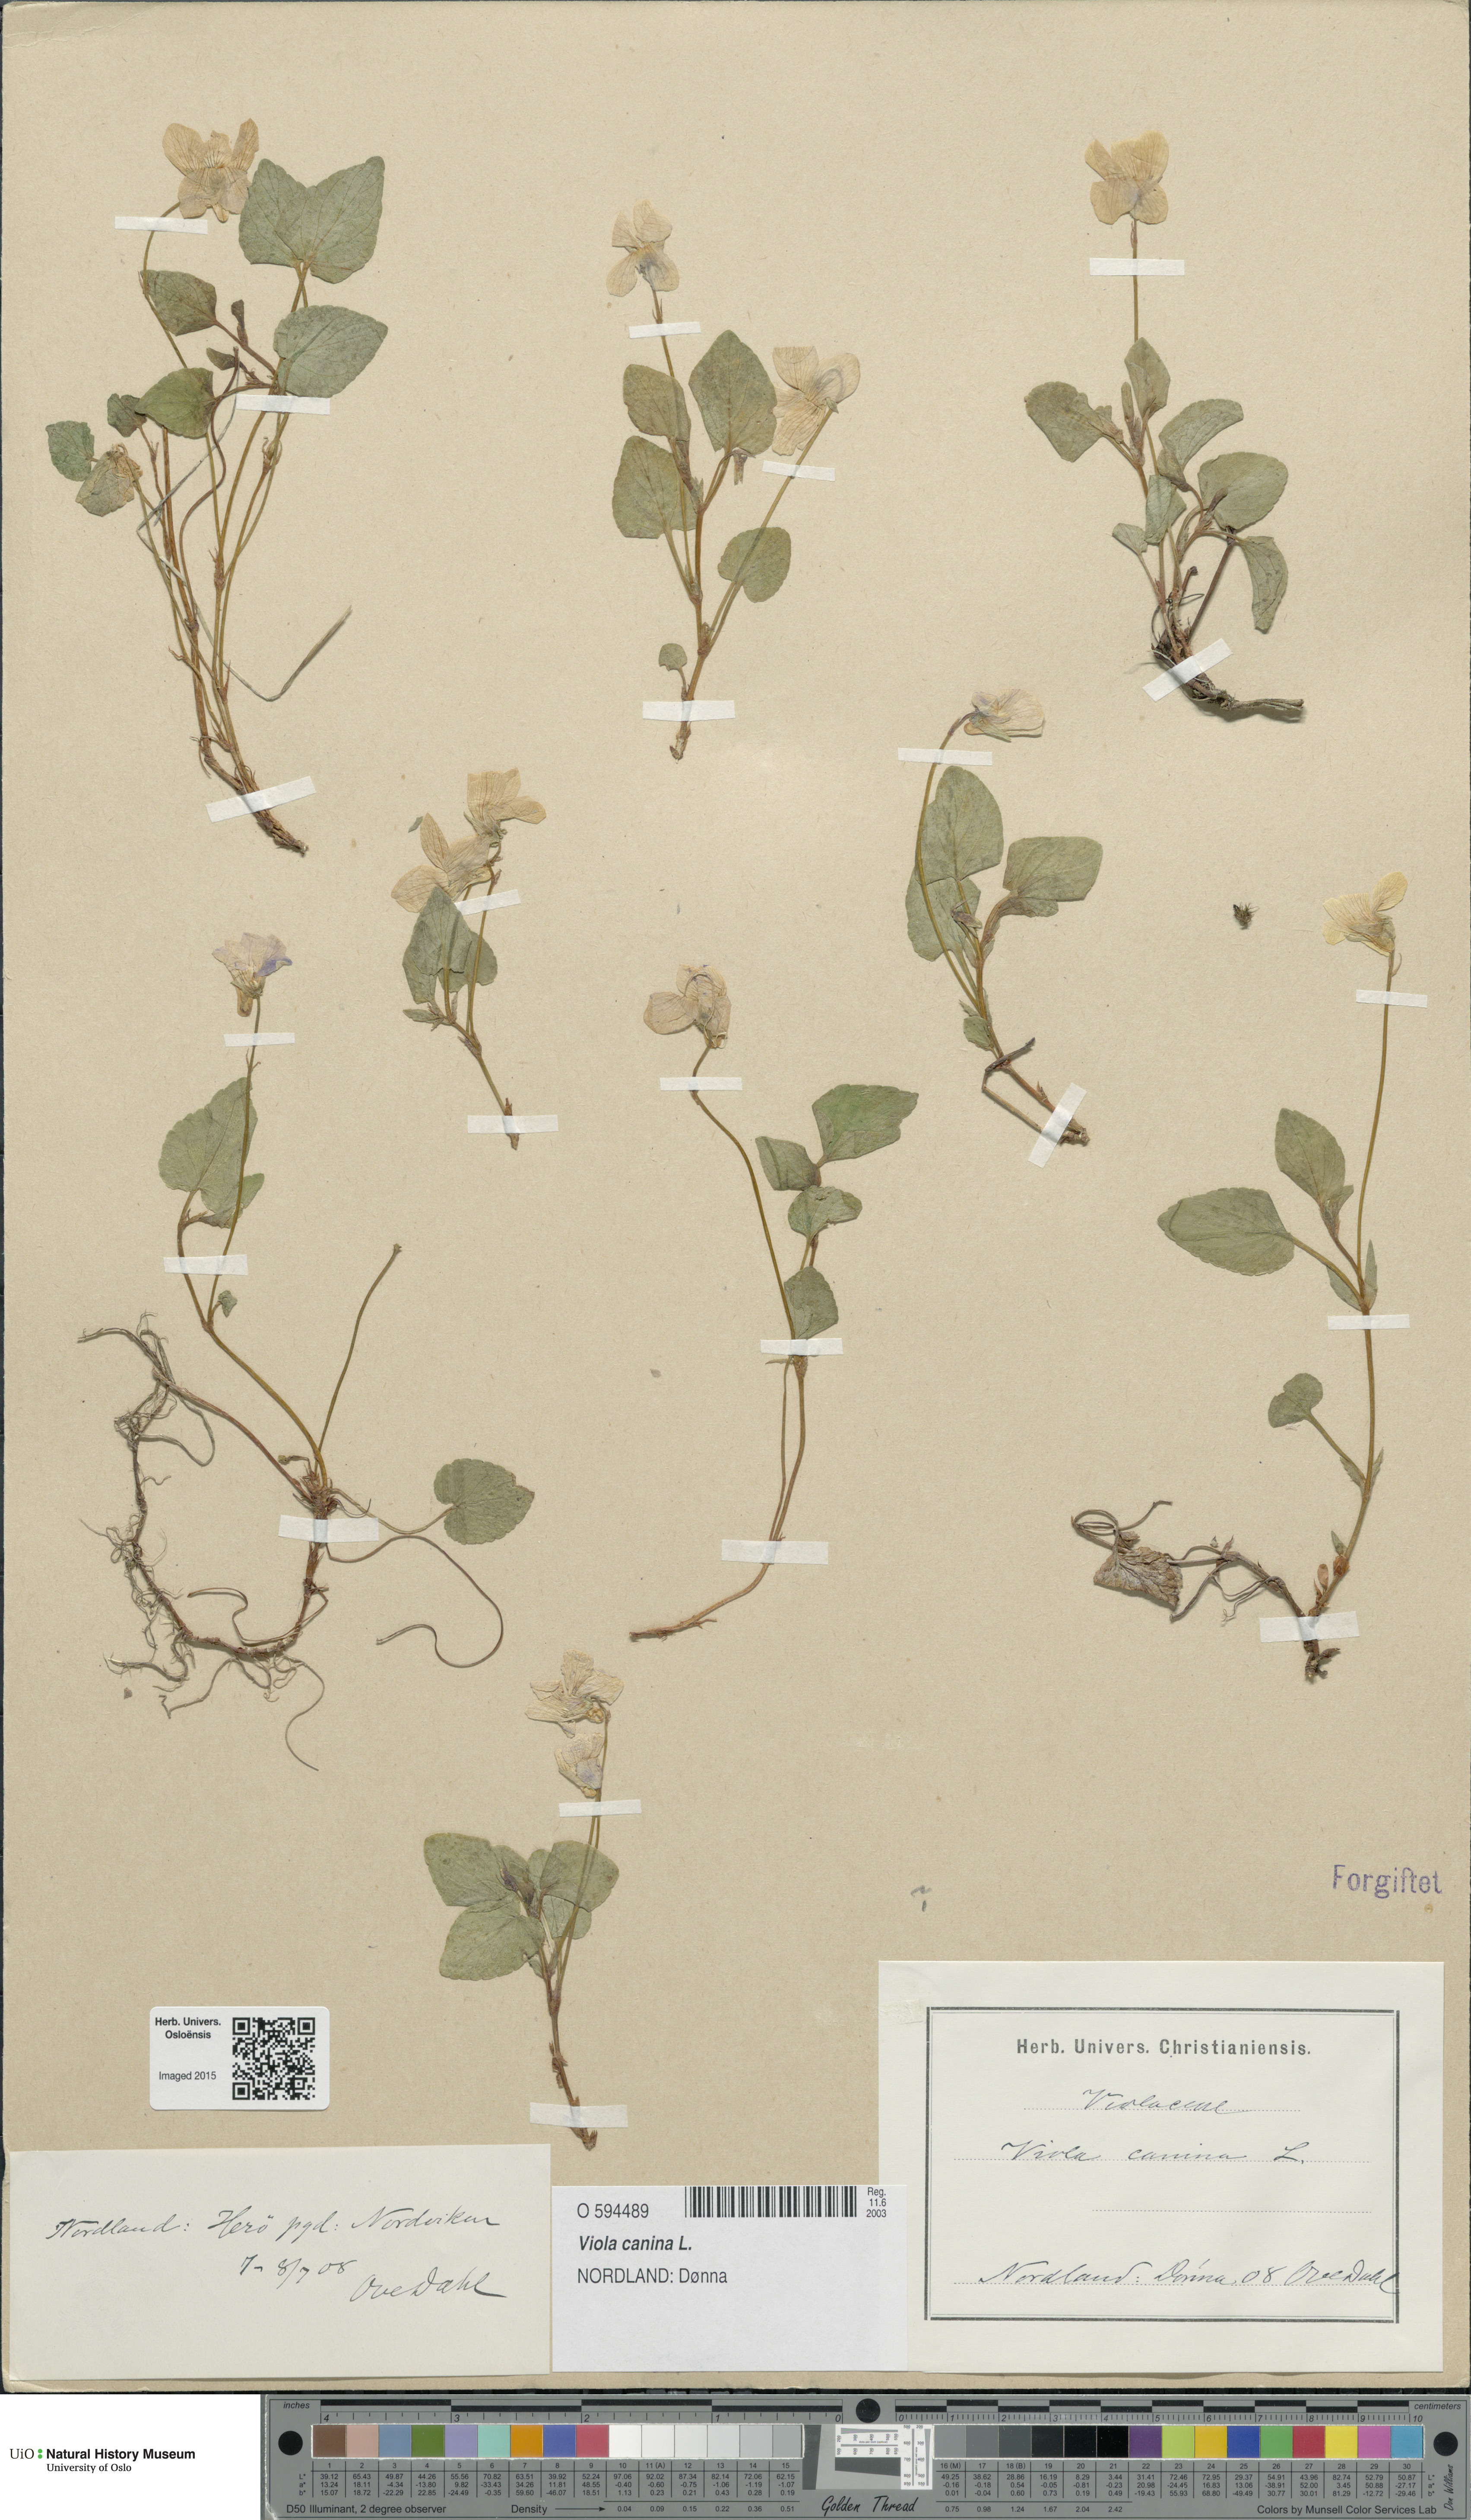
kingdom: Plantae
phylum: Tracheophyta
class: Magnoliopsida
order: Malpighiales
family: Violaceae
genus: Viola
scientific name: Viola canina
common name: Heath dog-violet
